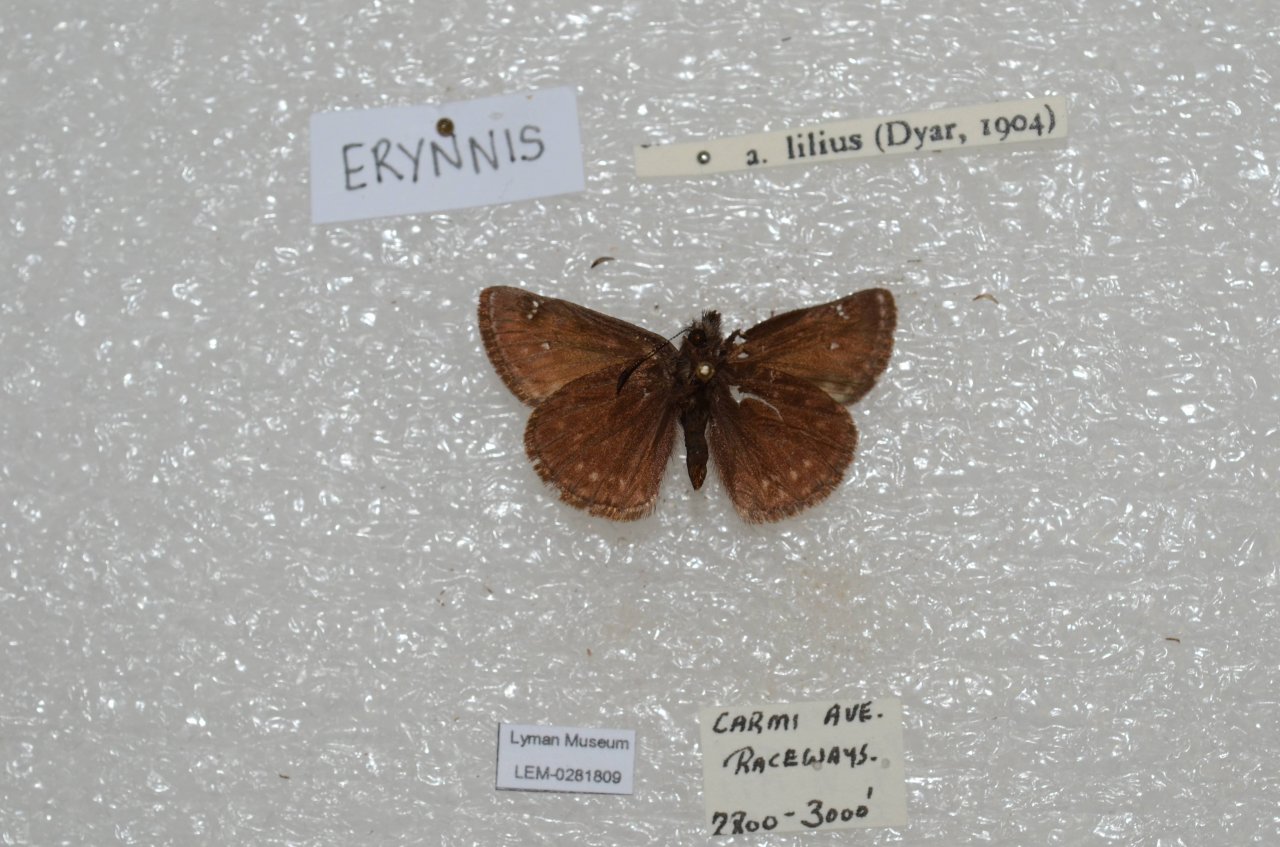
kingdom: Animalia
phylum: Arthropoda
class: Insecta
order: Lepidoptera
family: Hesperiidae
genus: Erynnis
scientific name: Erynnis pacuvius
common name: Pacuvius Duskywing
